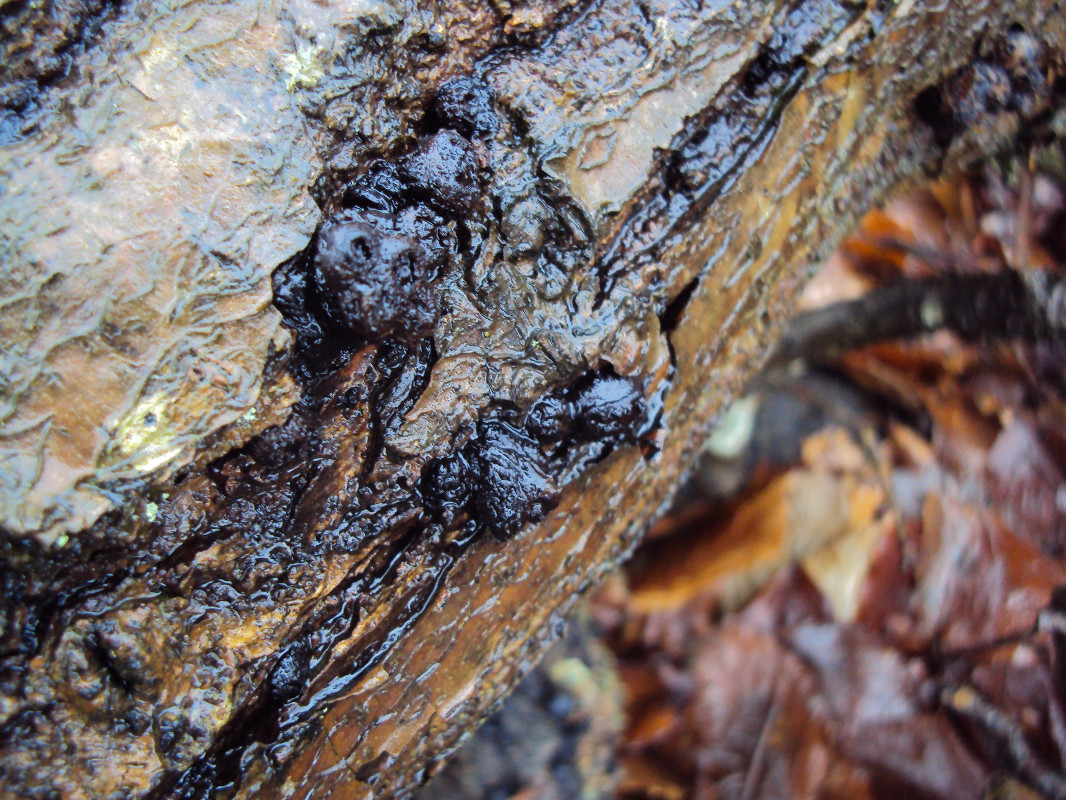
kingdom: Fungi
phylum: Ascomycota
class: Leotiomycetes
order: Phacidiales
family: Phacidiaceae
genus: Bulgaria
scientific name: Bulgaria inquinans
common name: afsmittende topsvamp
